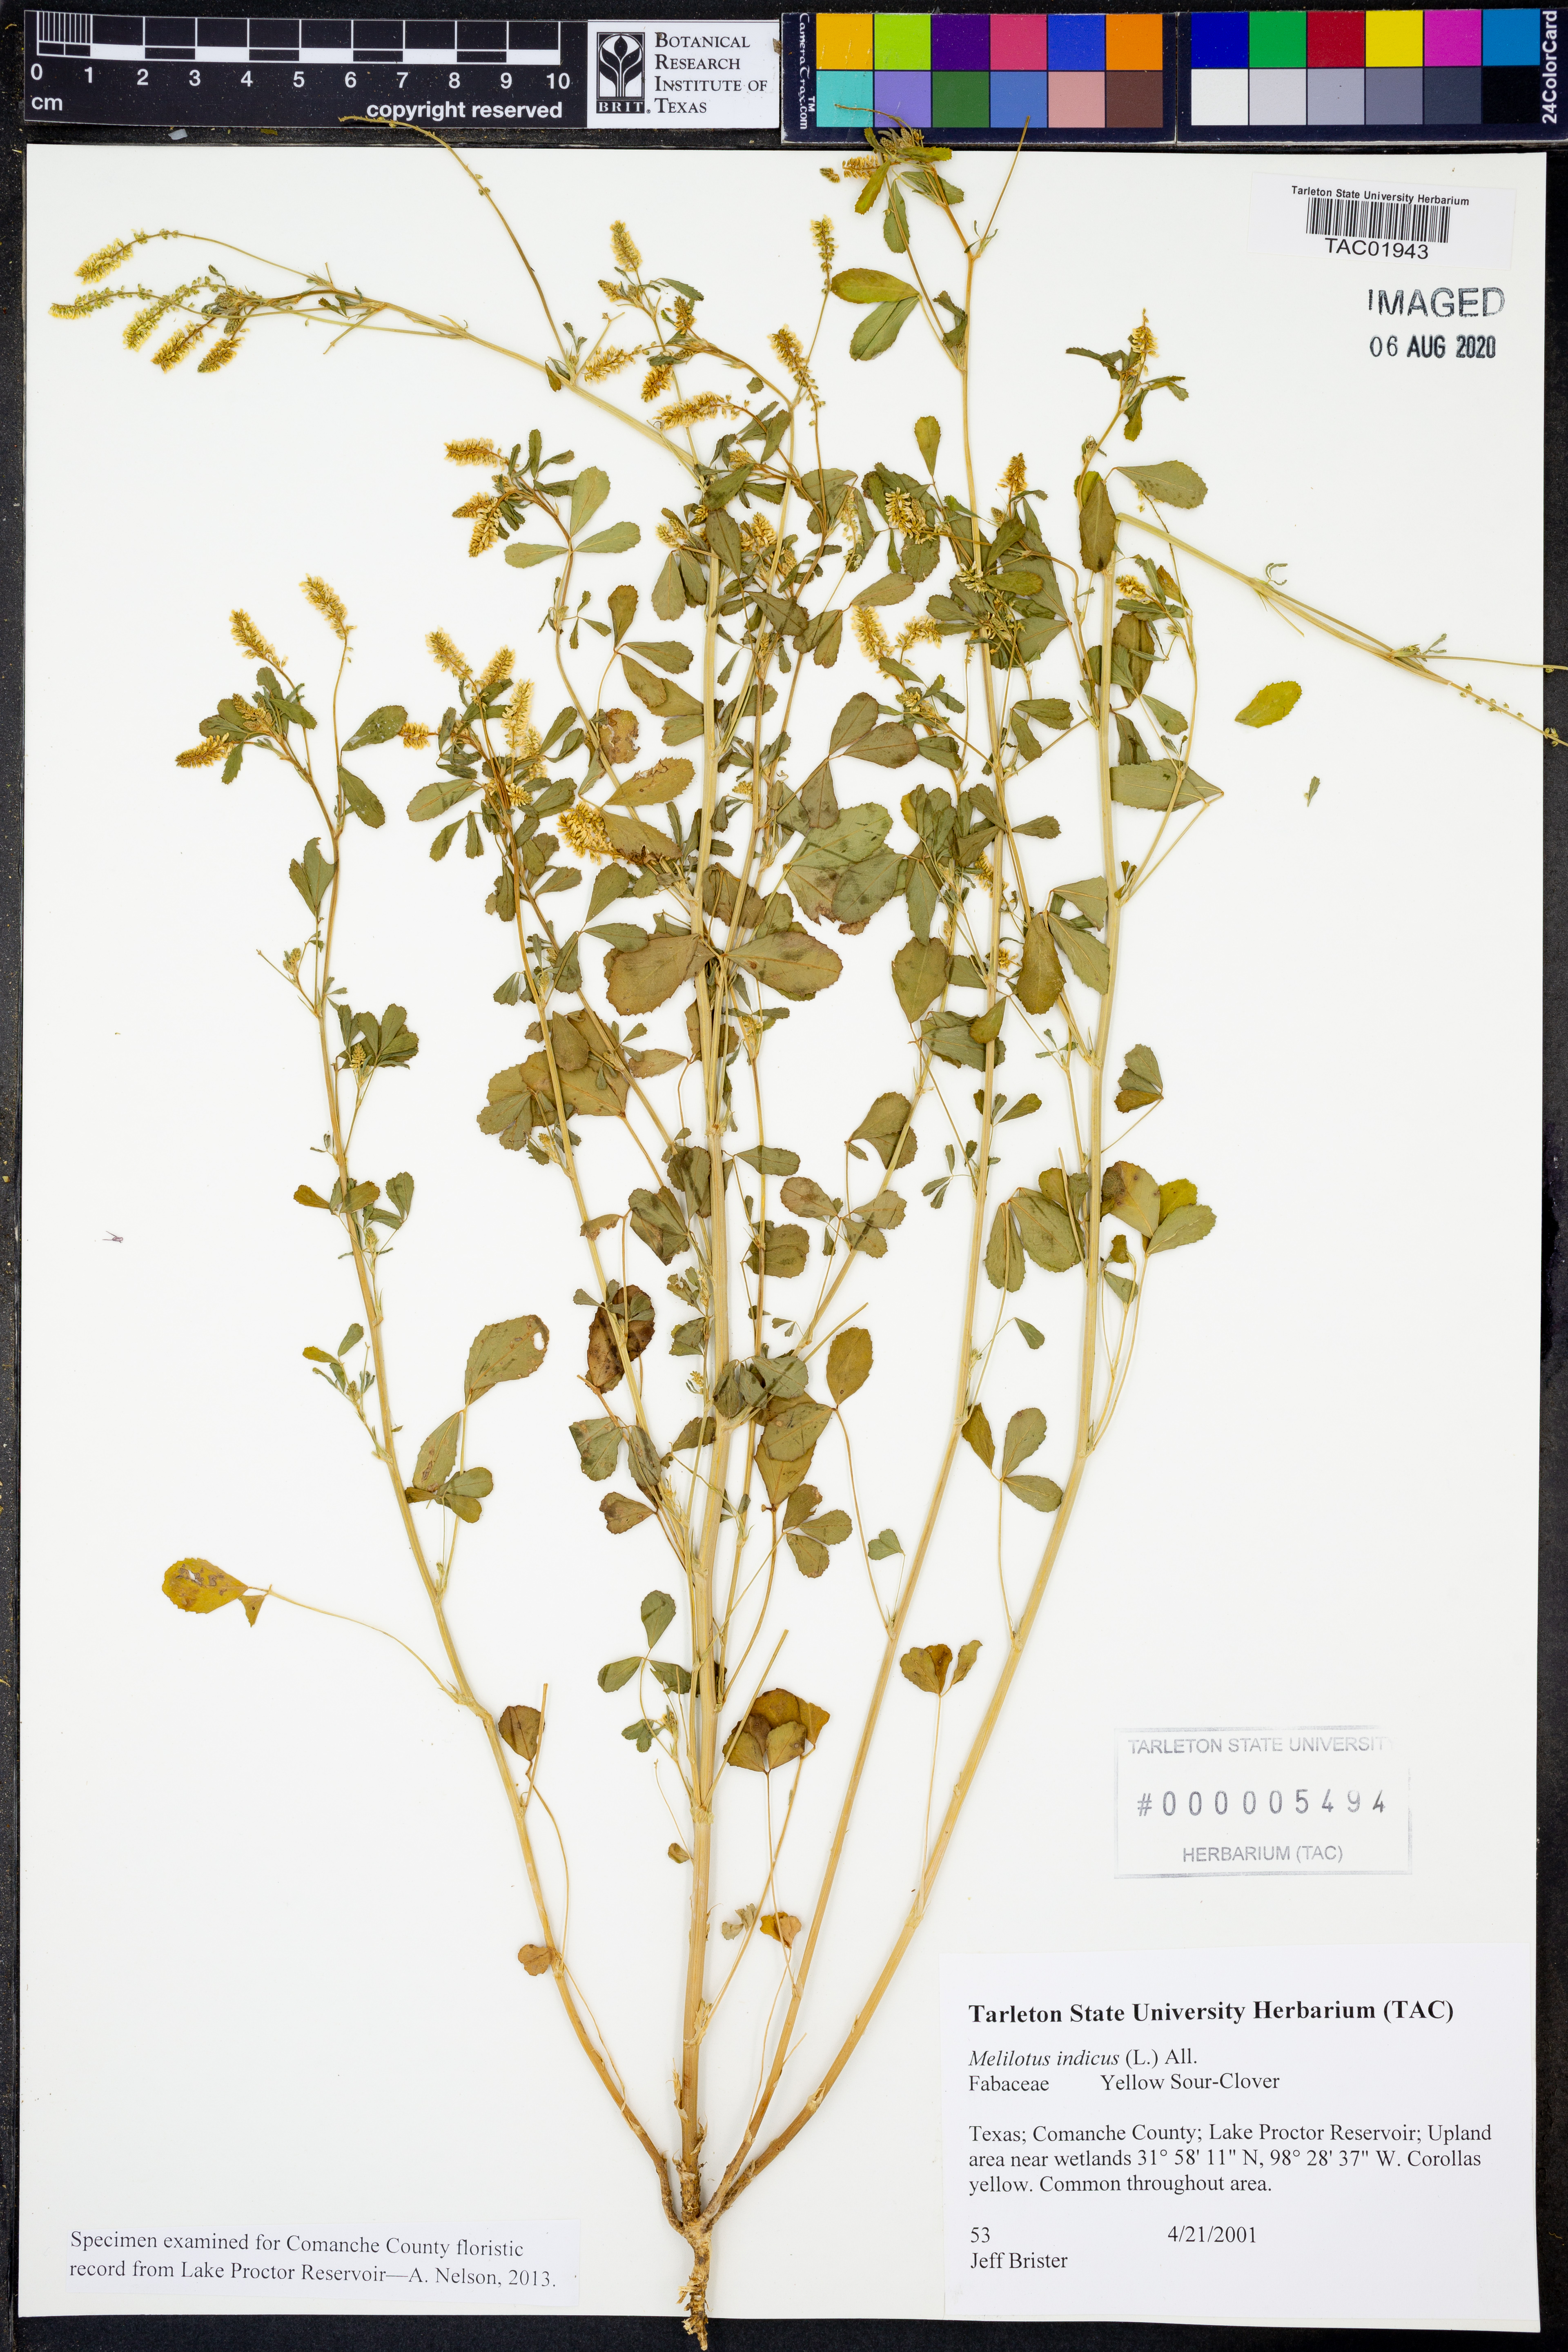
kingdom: Plantae
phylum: Tracheophyta
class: Magnoliopsida
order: Fabales
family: Fabaceae
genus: Melilotus
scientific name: Melilotus indicus
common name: Small melilot
